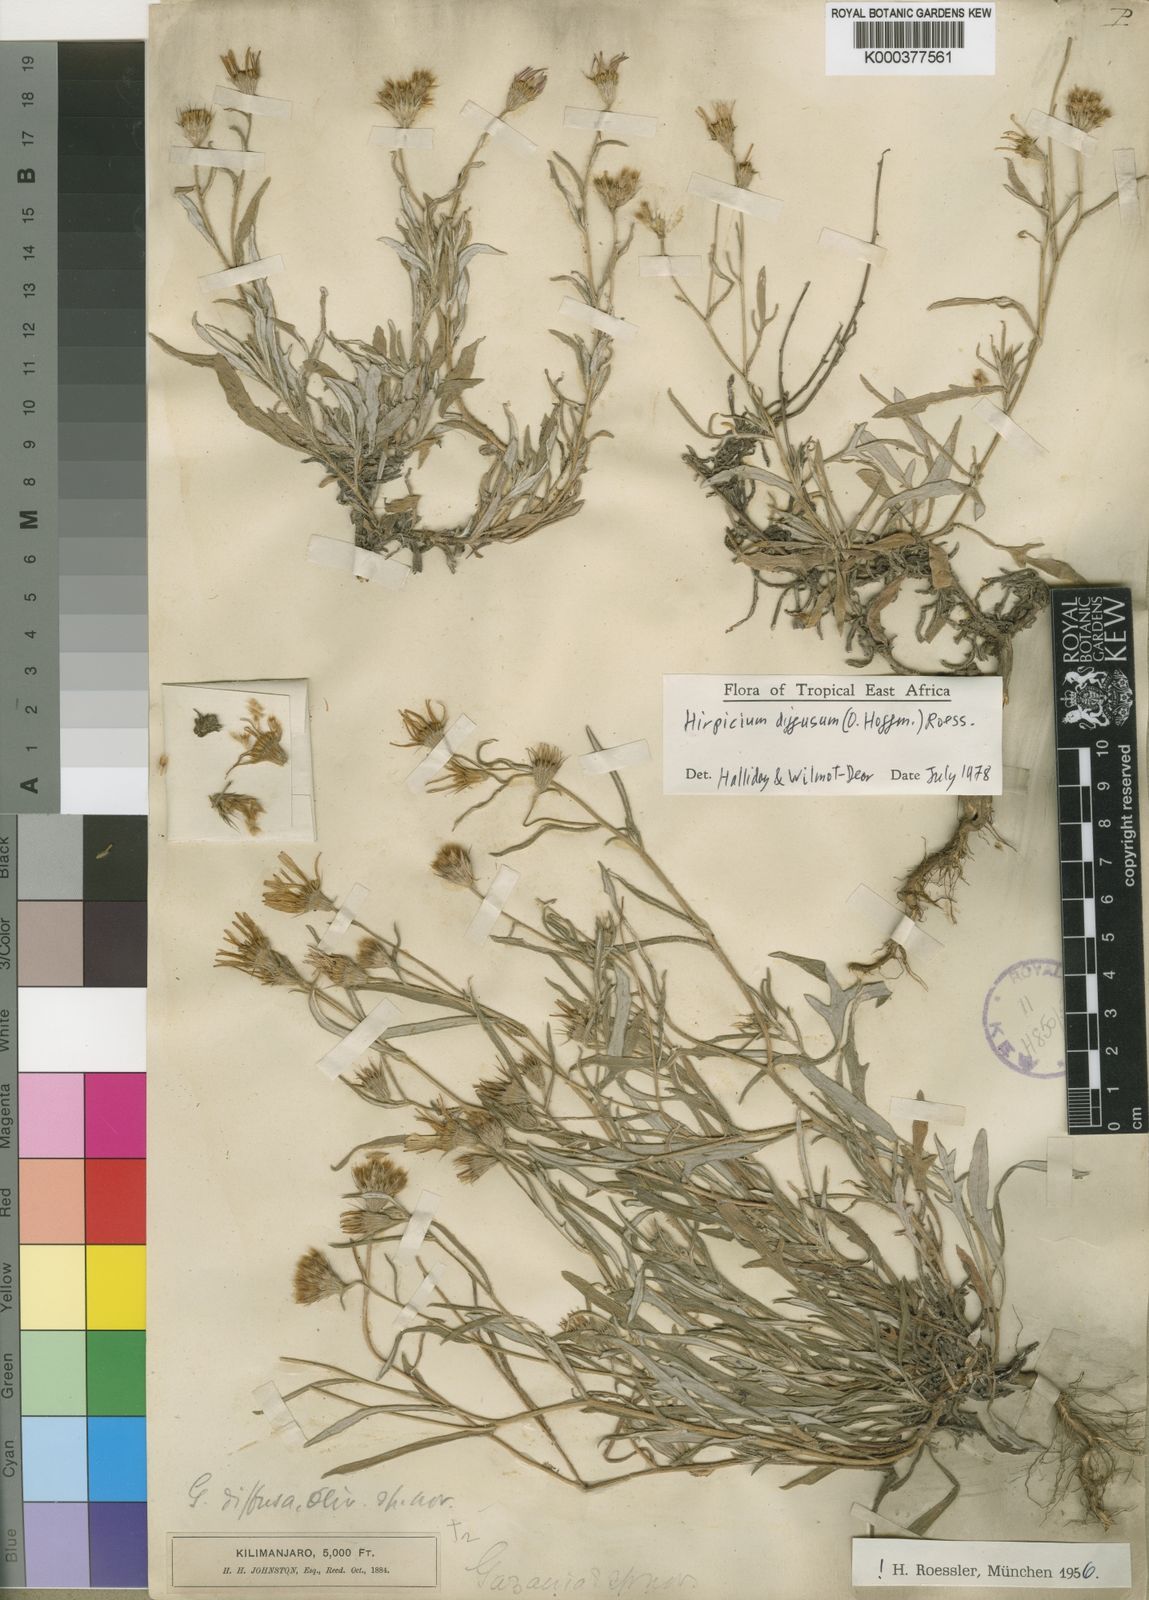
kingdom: Plantae
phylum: Tracheophyta
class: Magnoliopsida
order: Asterales
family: Asteraceae
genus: Hirpicium
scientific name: Hirpicium diffusum
